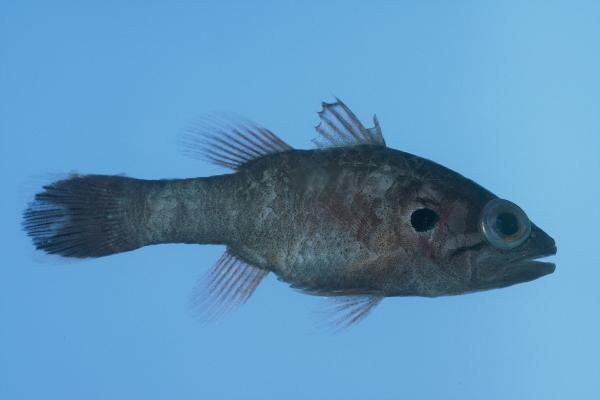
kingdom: Animalia
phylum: Chordata
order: Perciformes
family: Apogonidae
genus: Fowleria
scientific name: Fowleria aurita
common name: Crosseyed cardinalfish
